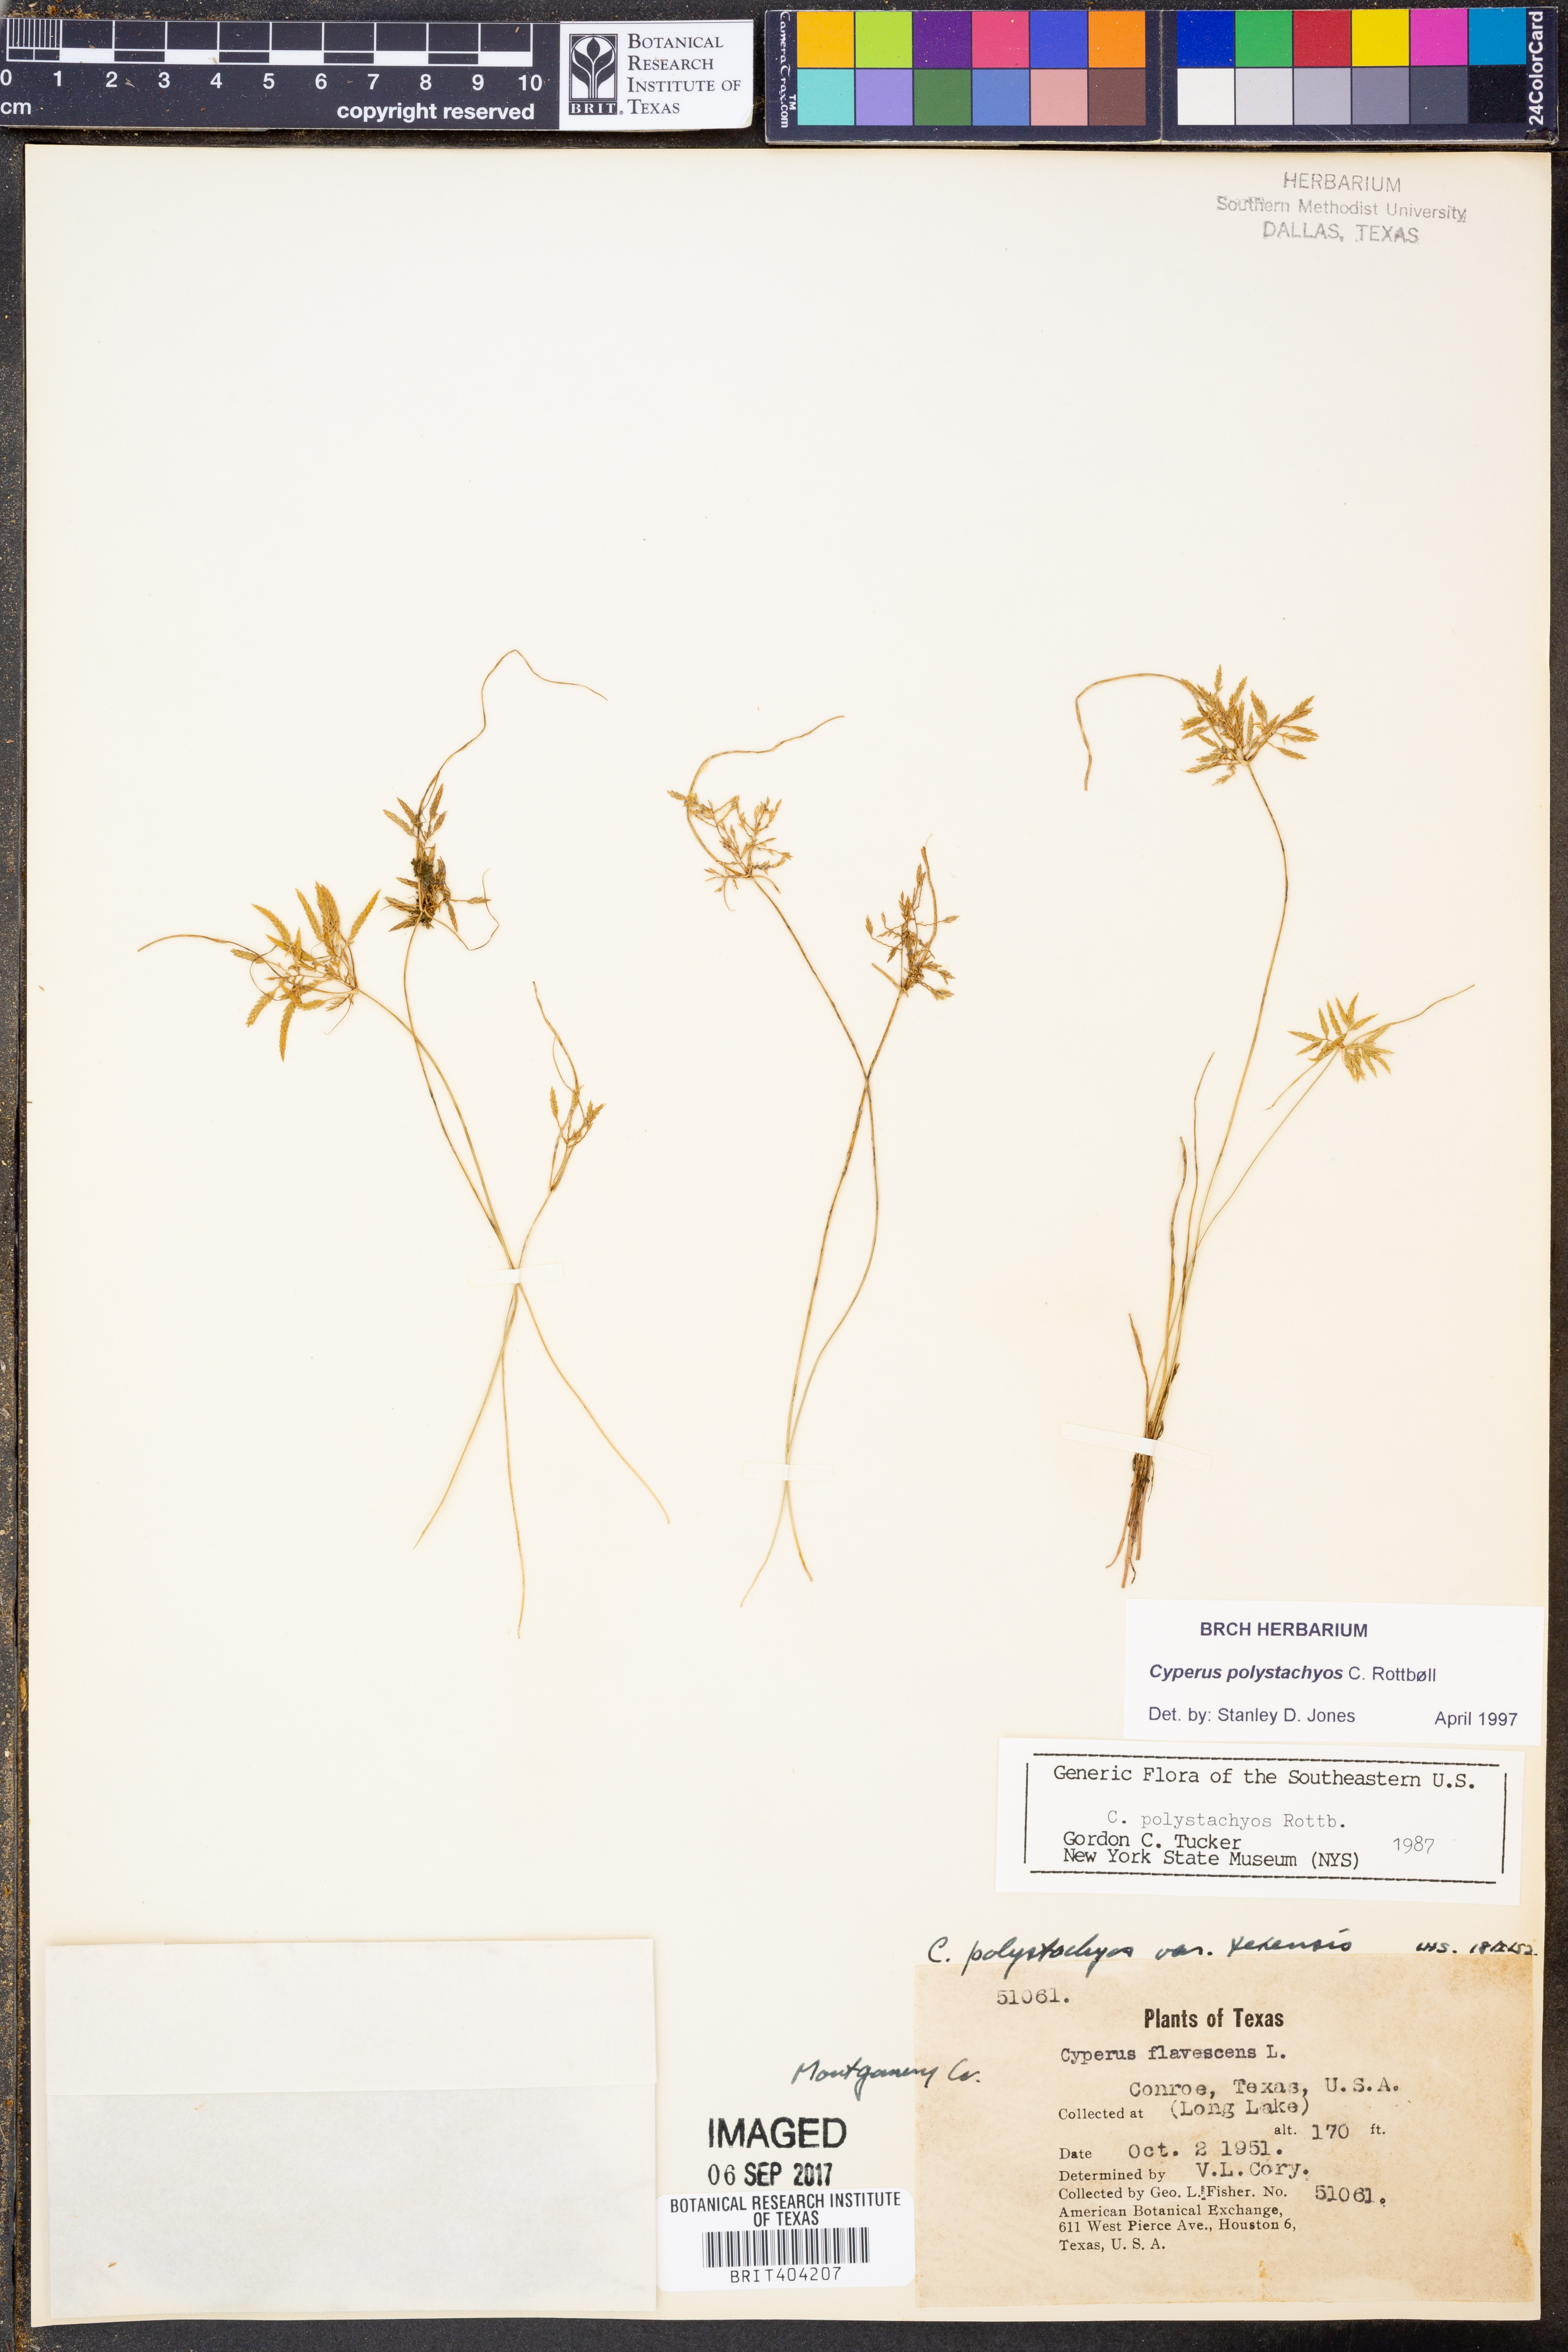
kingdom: Plantae
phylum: Tracheophyta
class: Liliopsida
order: Poales
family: Cyperaceae
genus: Cyperus
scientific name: Cyperus polystachyos
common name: Bunchy flat sedge
